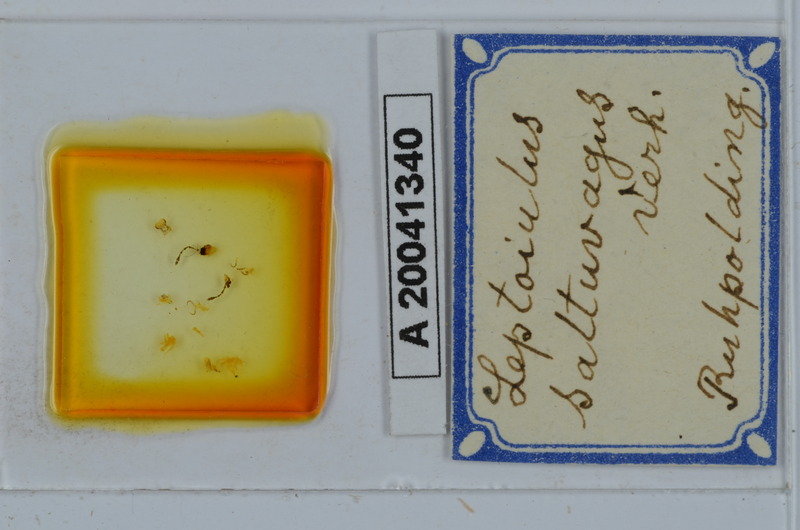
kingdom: Animalia
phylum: Arthropoda
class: Diplopoda
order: Julida
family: Julidae
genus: Leptoiulus
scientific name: Leptoiulus saltuvagus
